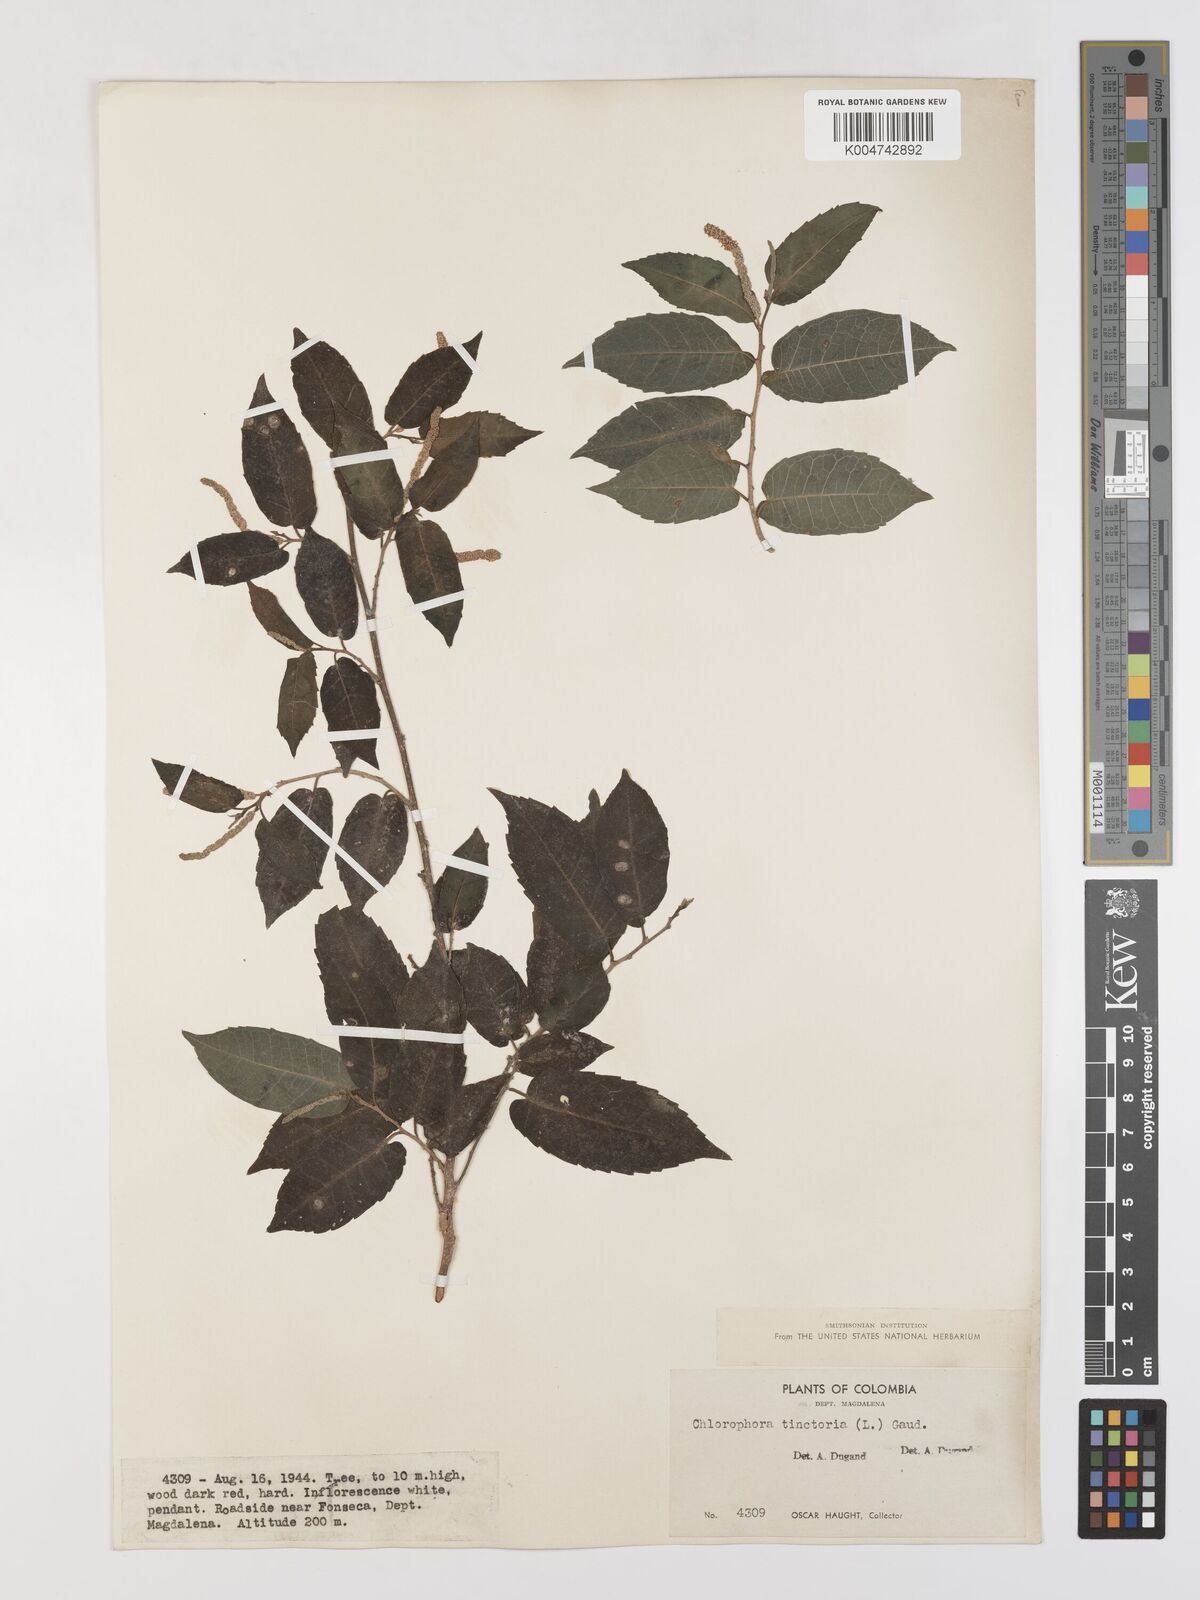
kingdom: Plantae
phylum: Tracheophyta
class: Magnoliopsida
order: Rosales
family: Moraceae
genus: Maclura
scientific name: Maclura tinctoria
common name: Old fustic
